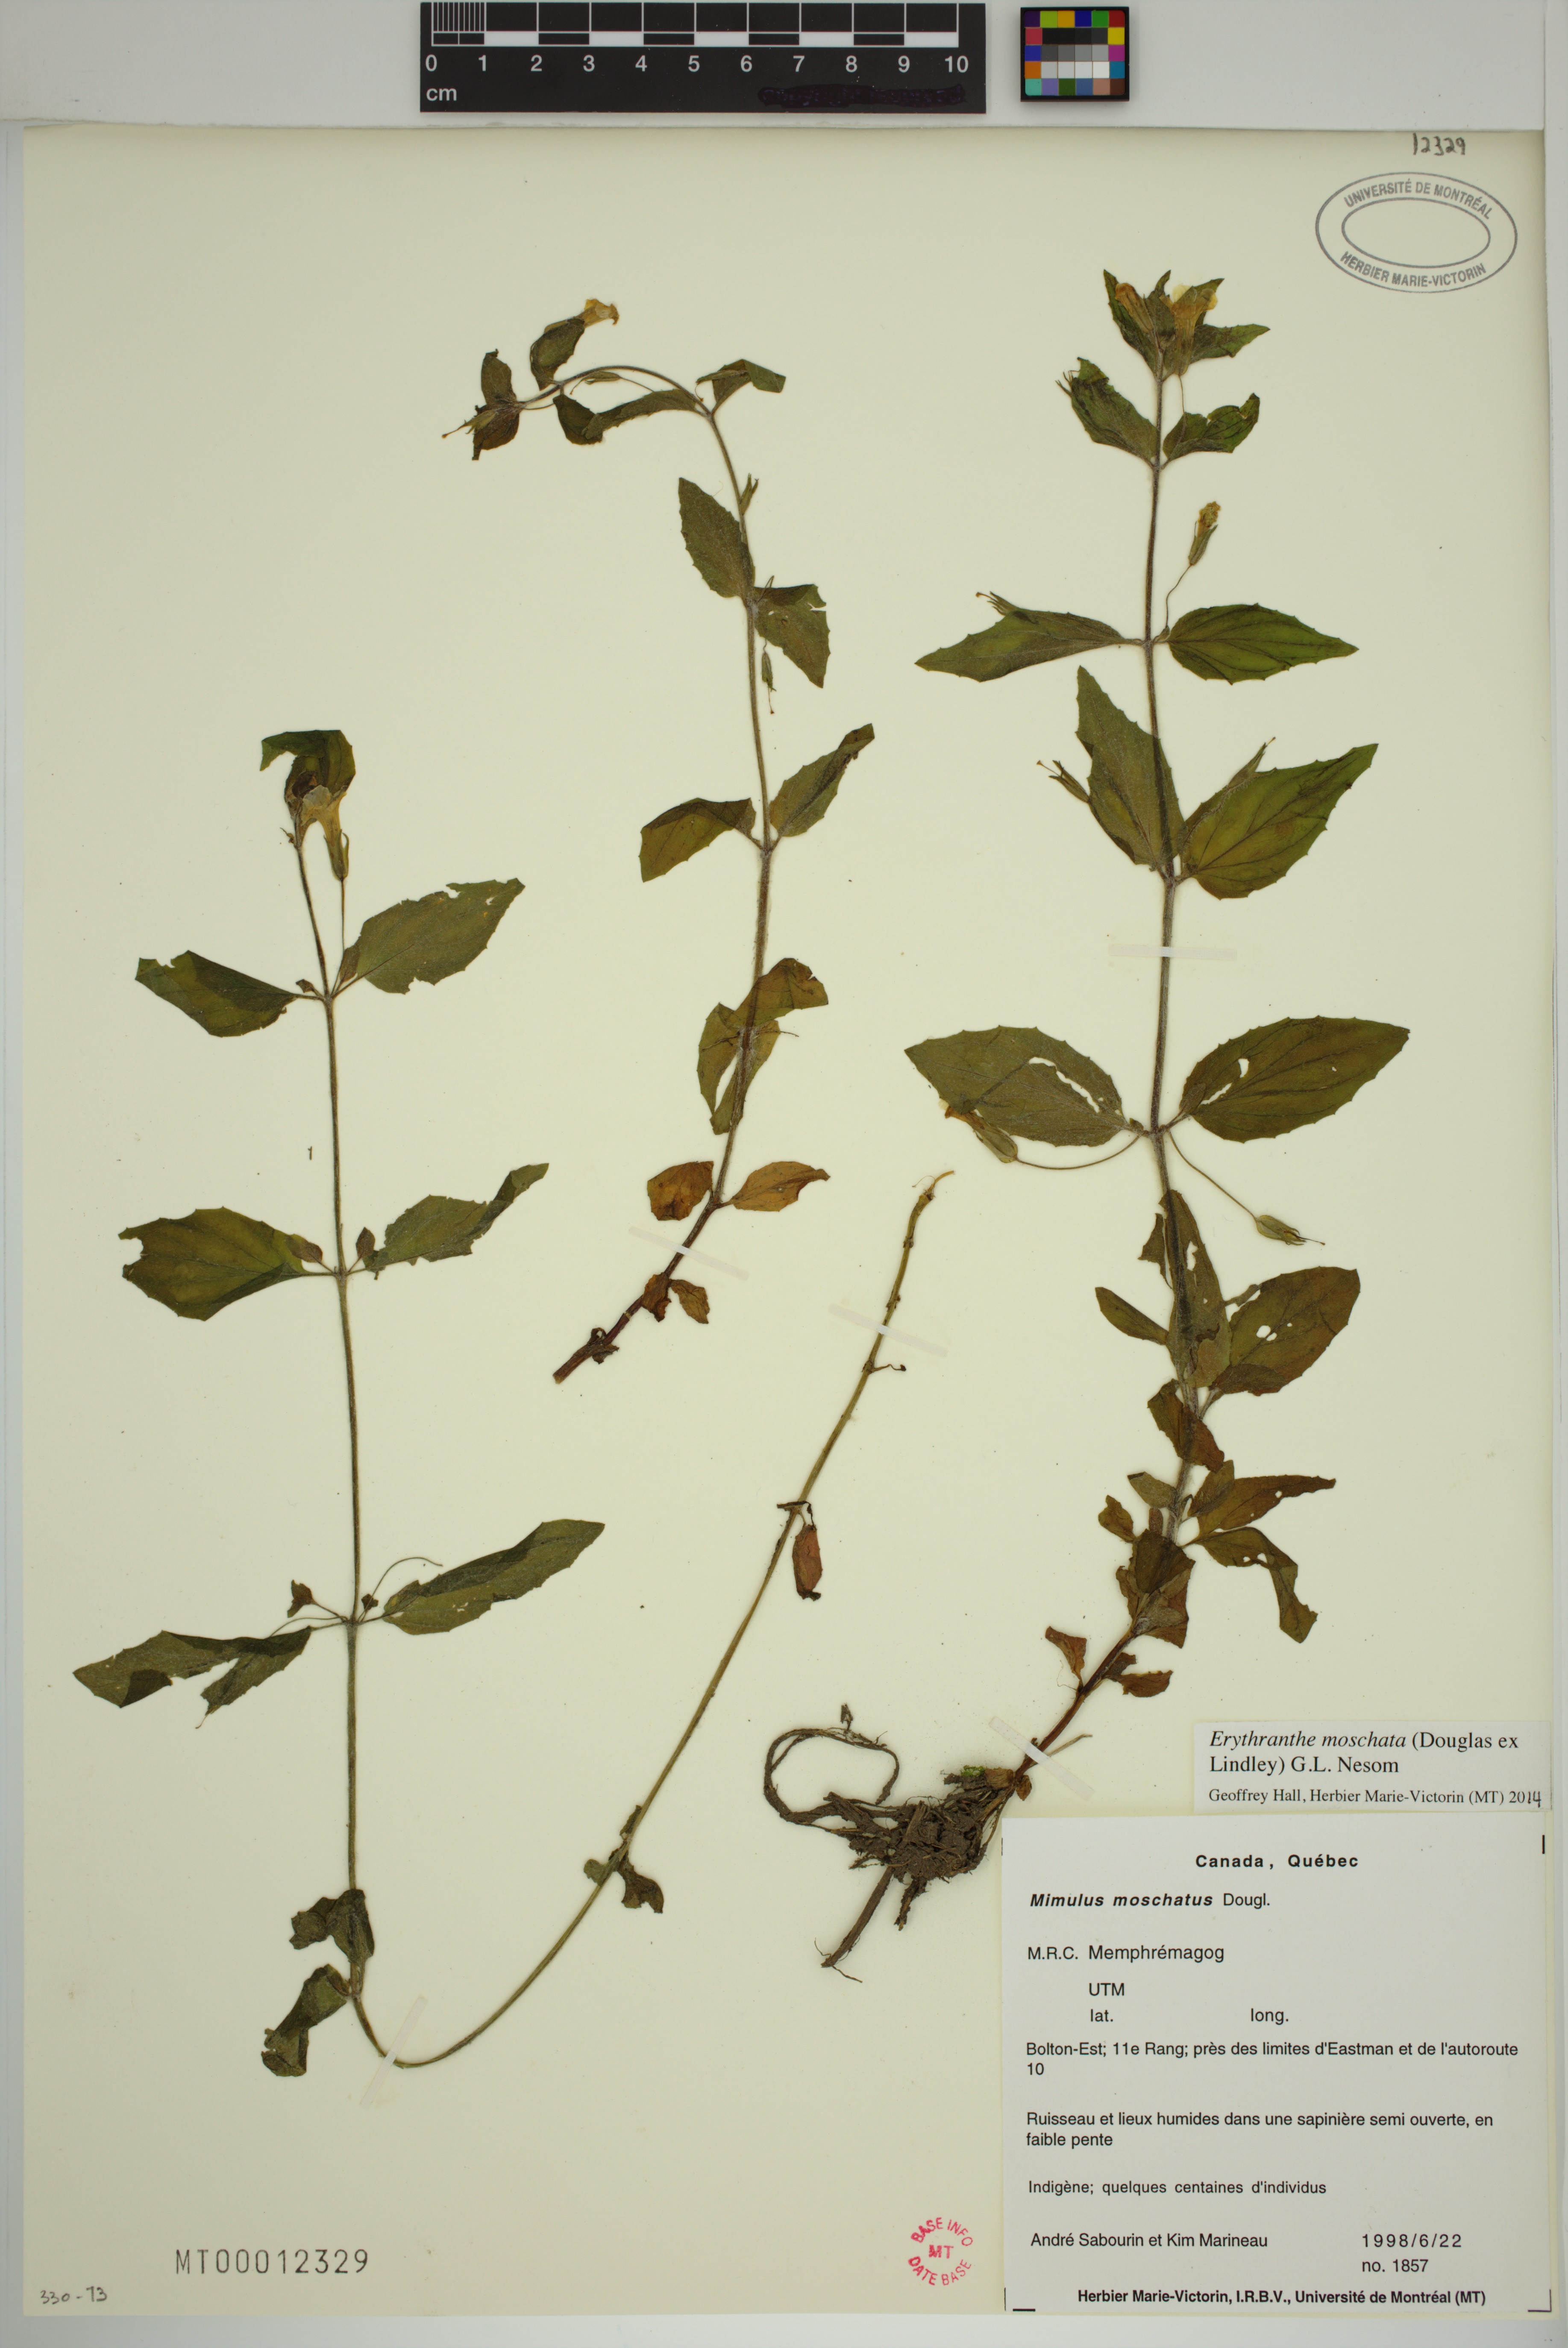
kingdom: Plantae
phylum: Tracheophyta
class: Magnoliopsida
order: Lamiales
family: Phrymaceae
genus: Erythranthe
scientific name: Erythranthe moschata
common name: Muskflower
